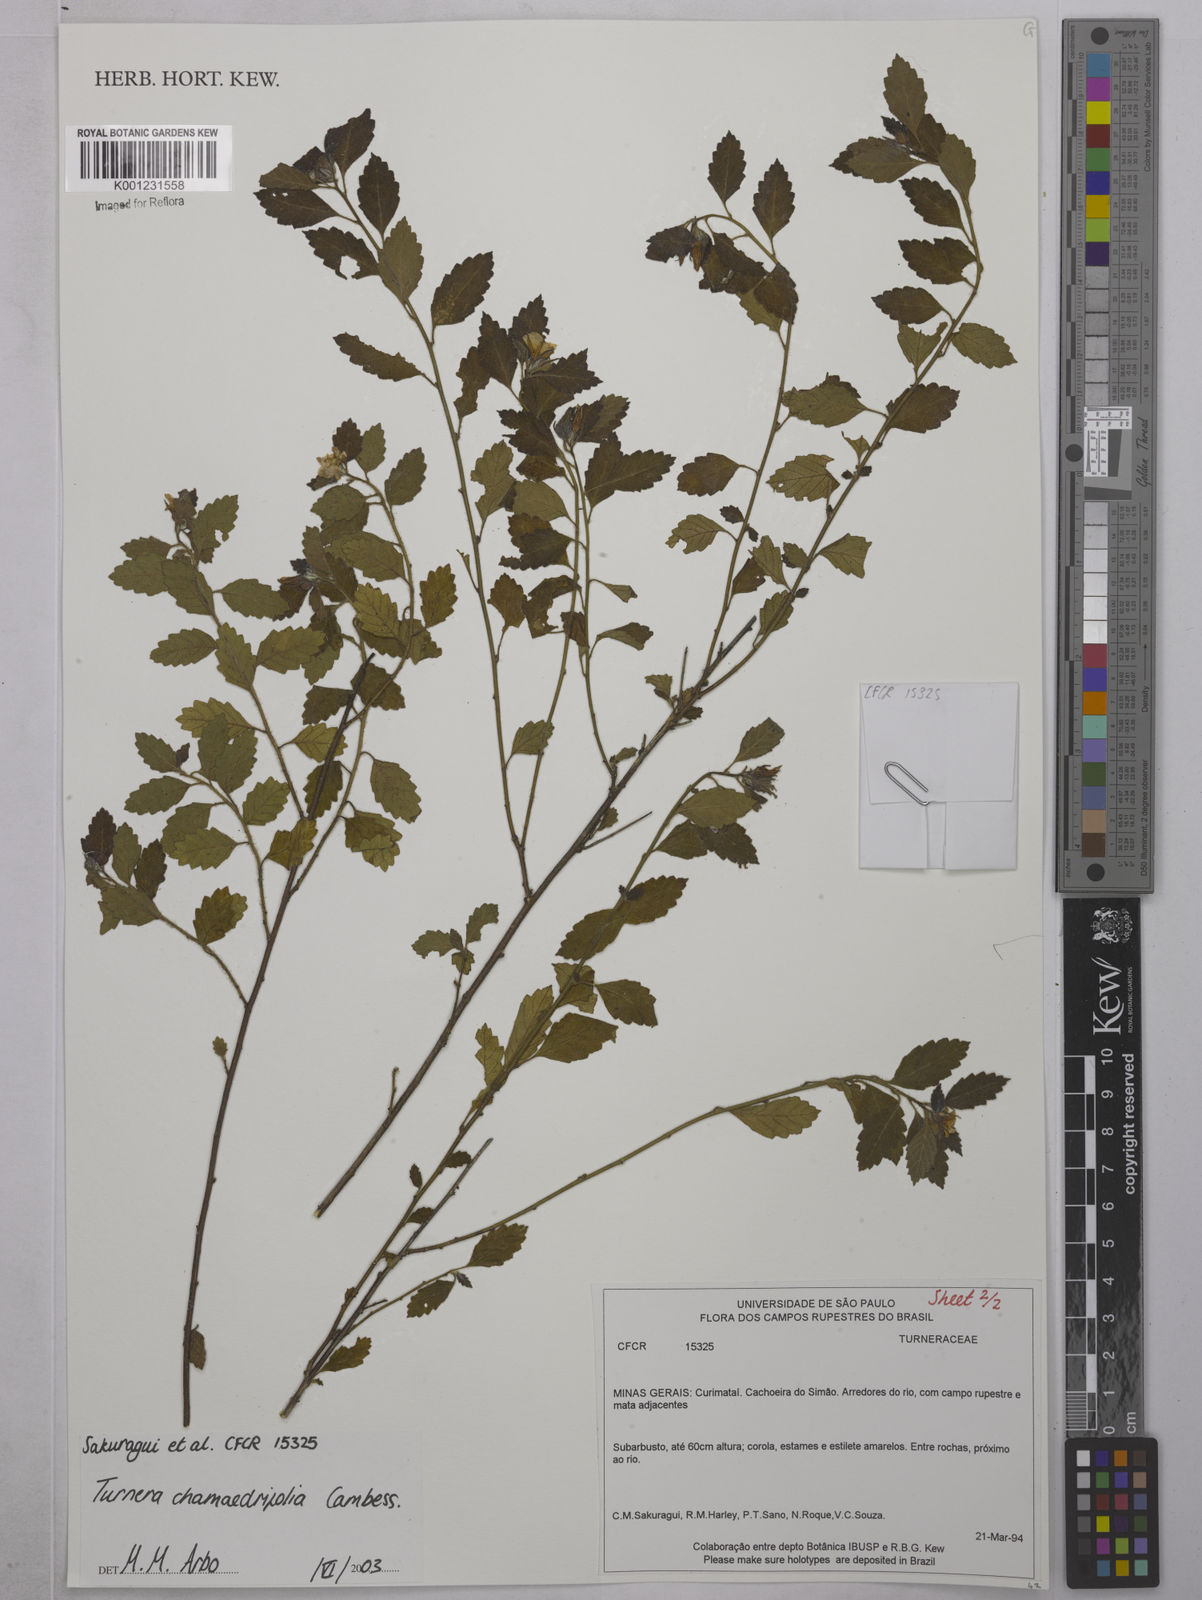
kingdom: Plantae
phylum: Tracheophyta
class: Magnoliopsida
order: Malpighiales
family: Turneraceae
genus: Turnera
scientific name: Turnera chamaedrifolia
